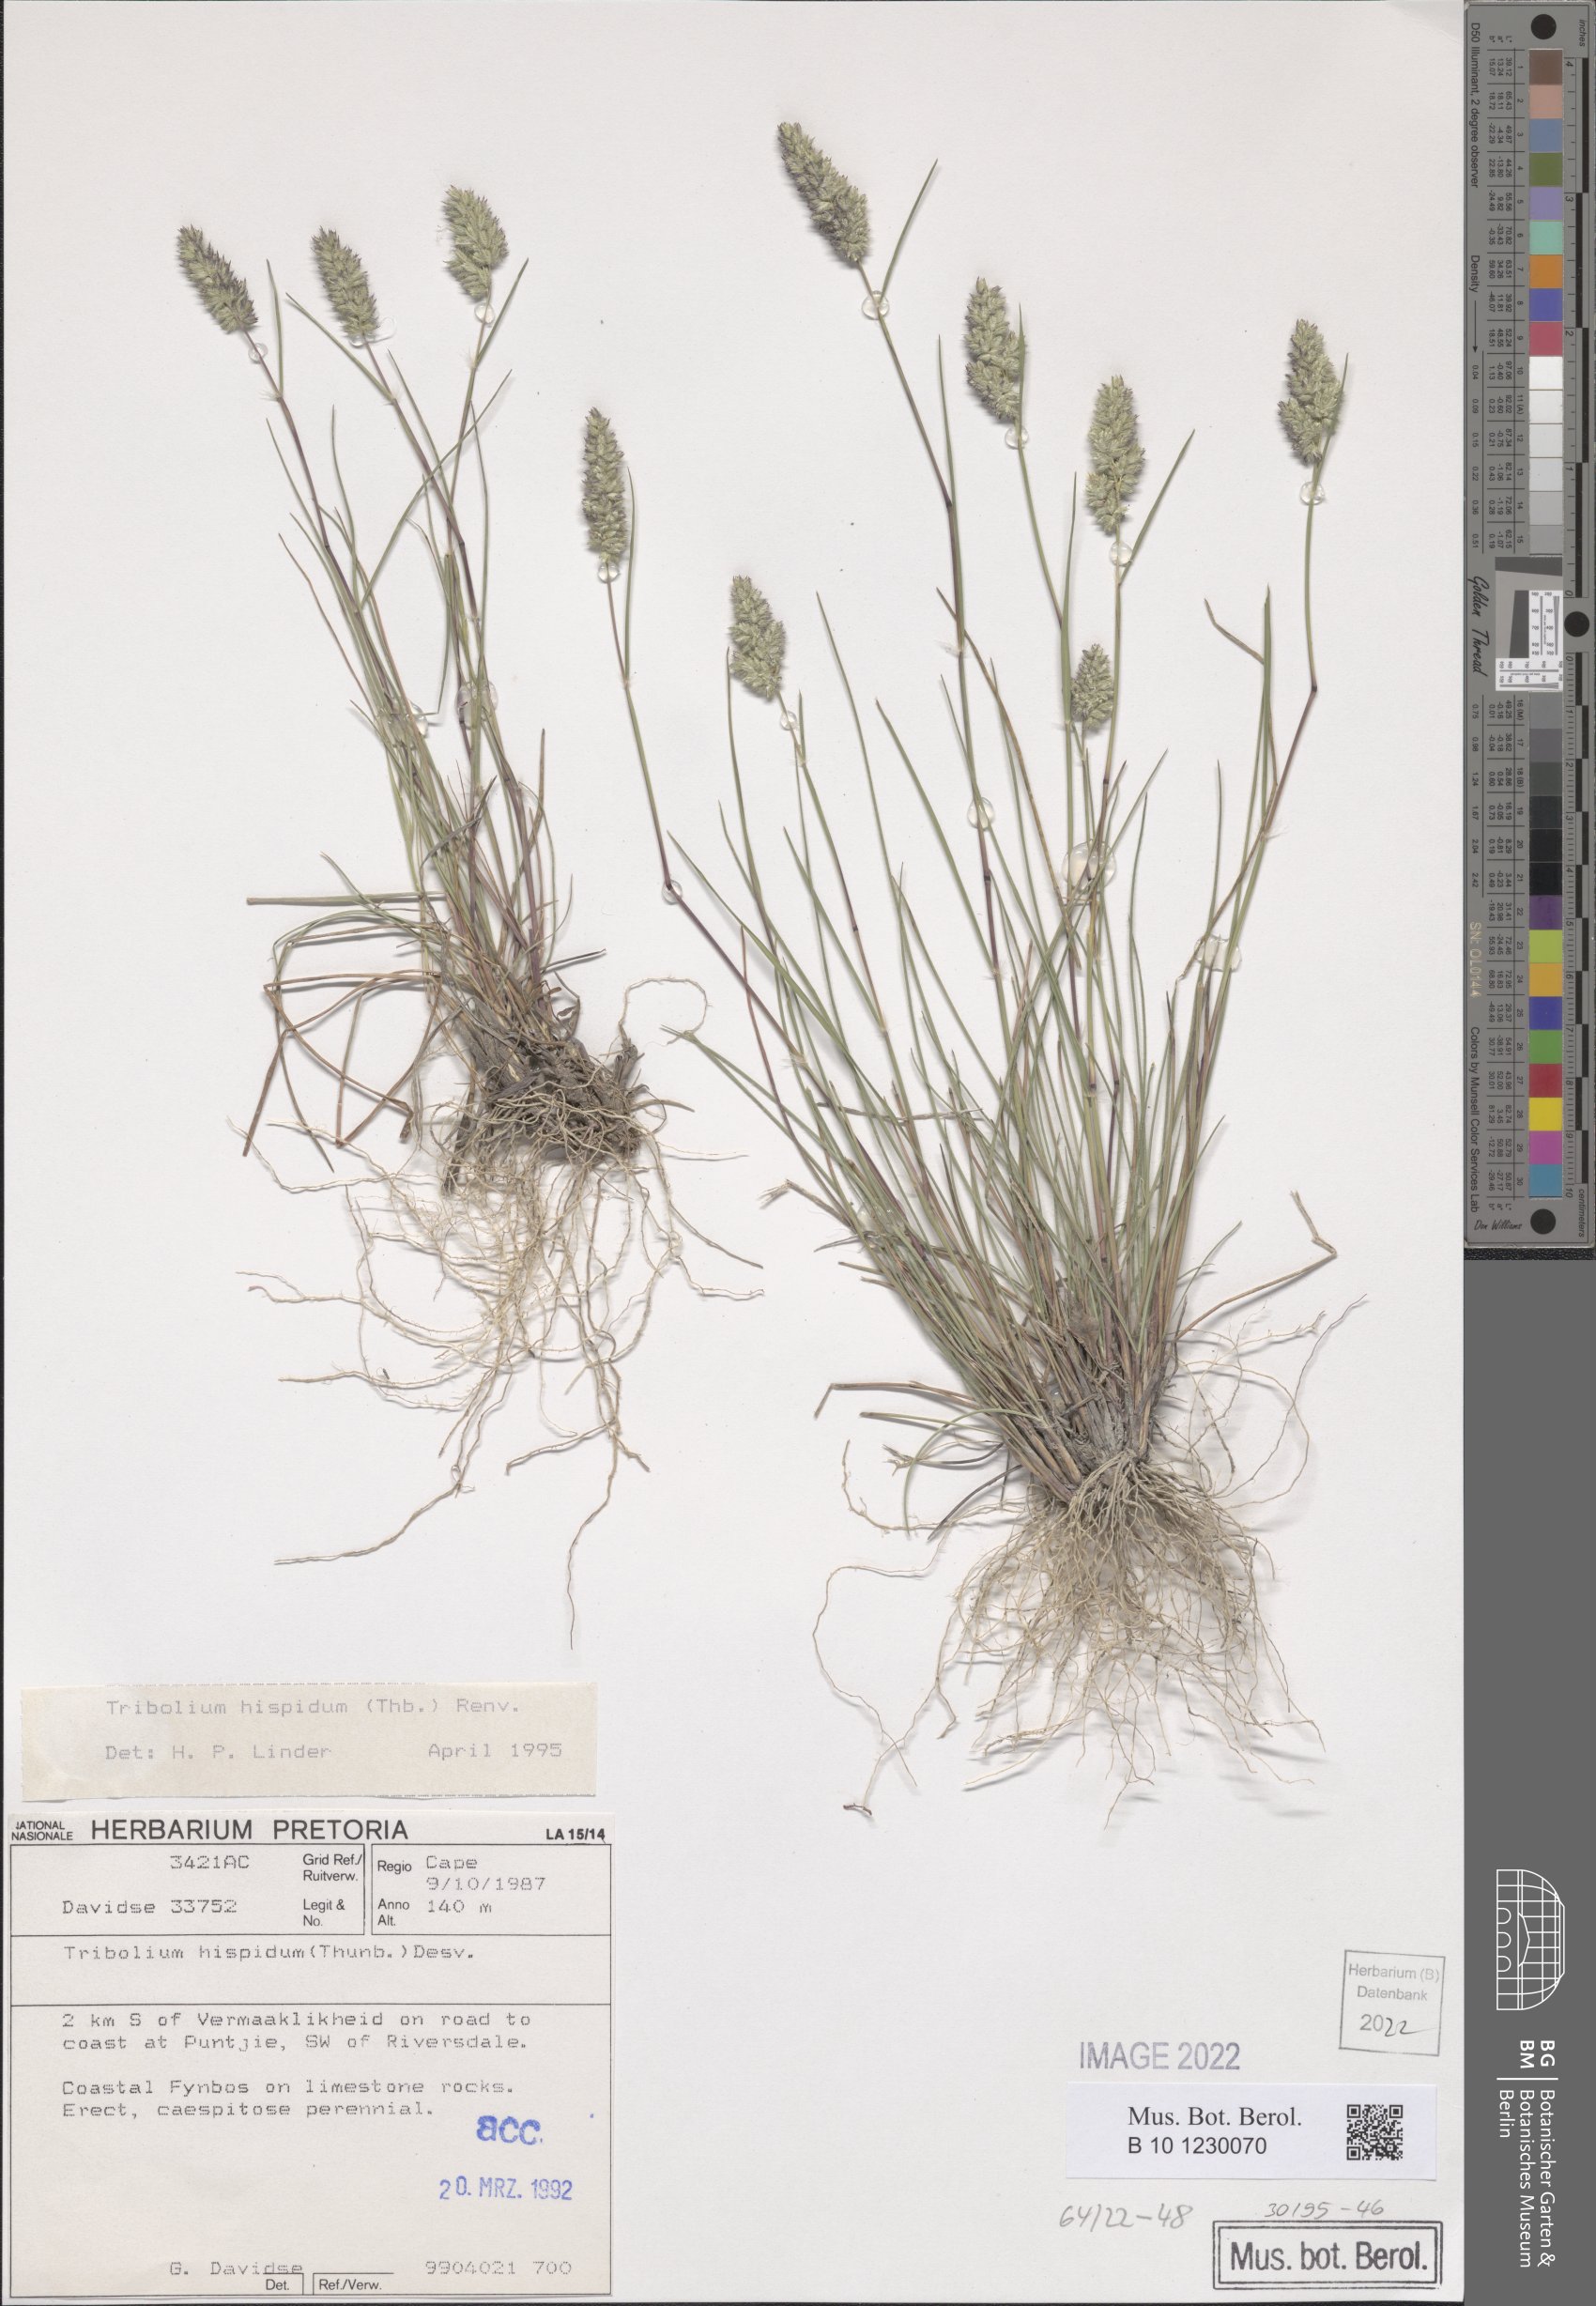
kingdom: Plantae
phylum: Tracheophyta
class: Liliopsida
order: Poales
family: Poaceae
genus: Tribolium
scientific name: Tribolium hispidum
